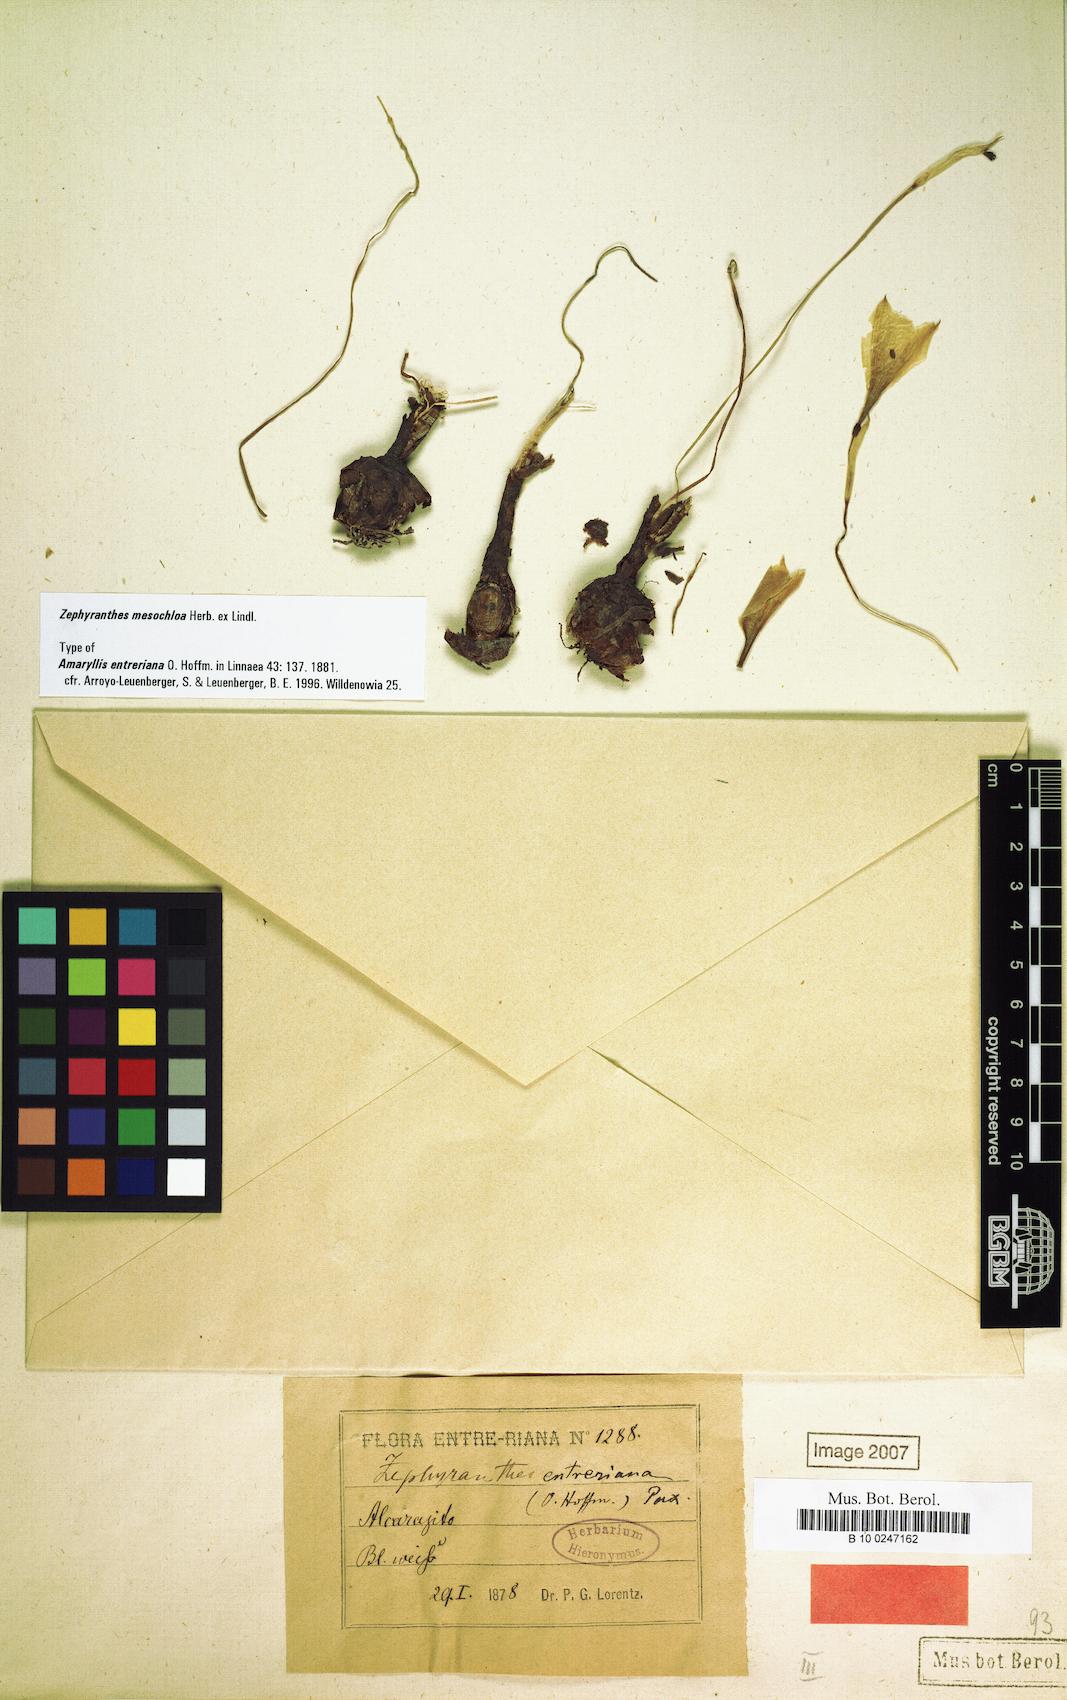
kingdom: Plantae
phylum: Tracheophyta
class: Liliopsida
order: Asparagales
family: Amaryllidaceae
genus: Zephyranthes
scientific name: Zephyranthes mesochloa
